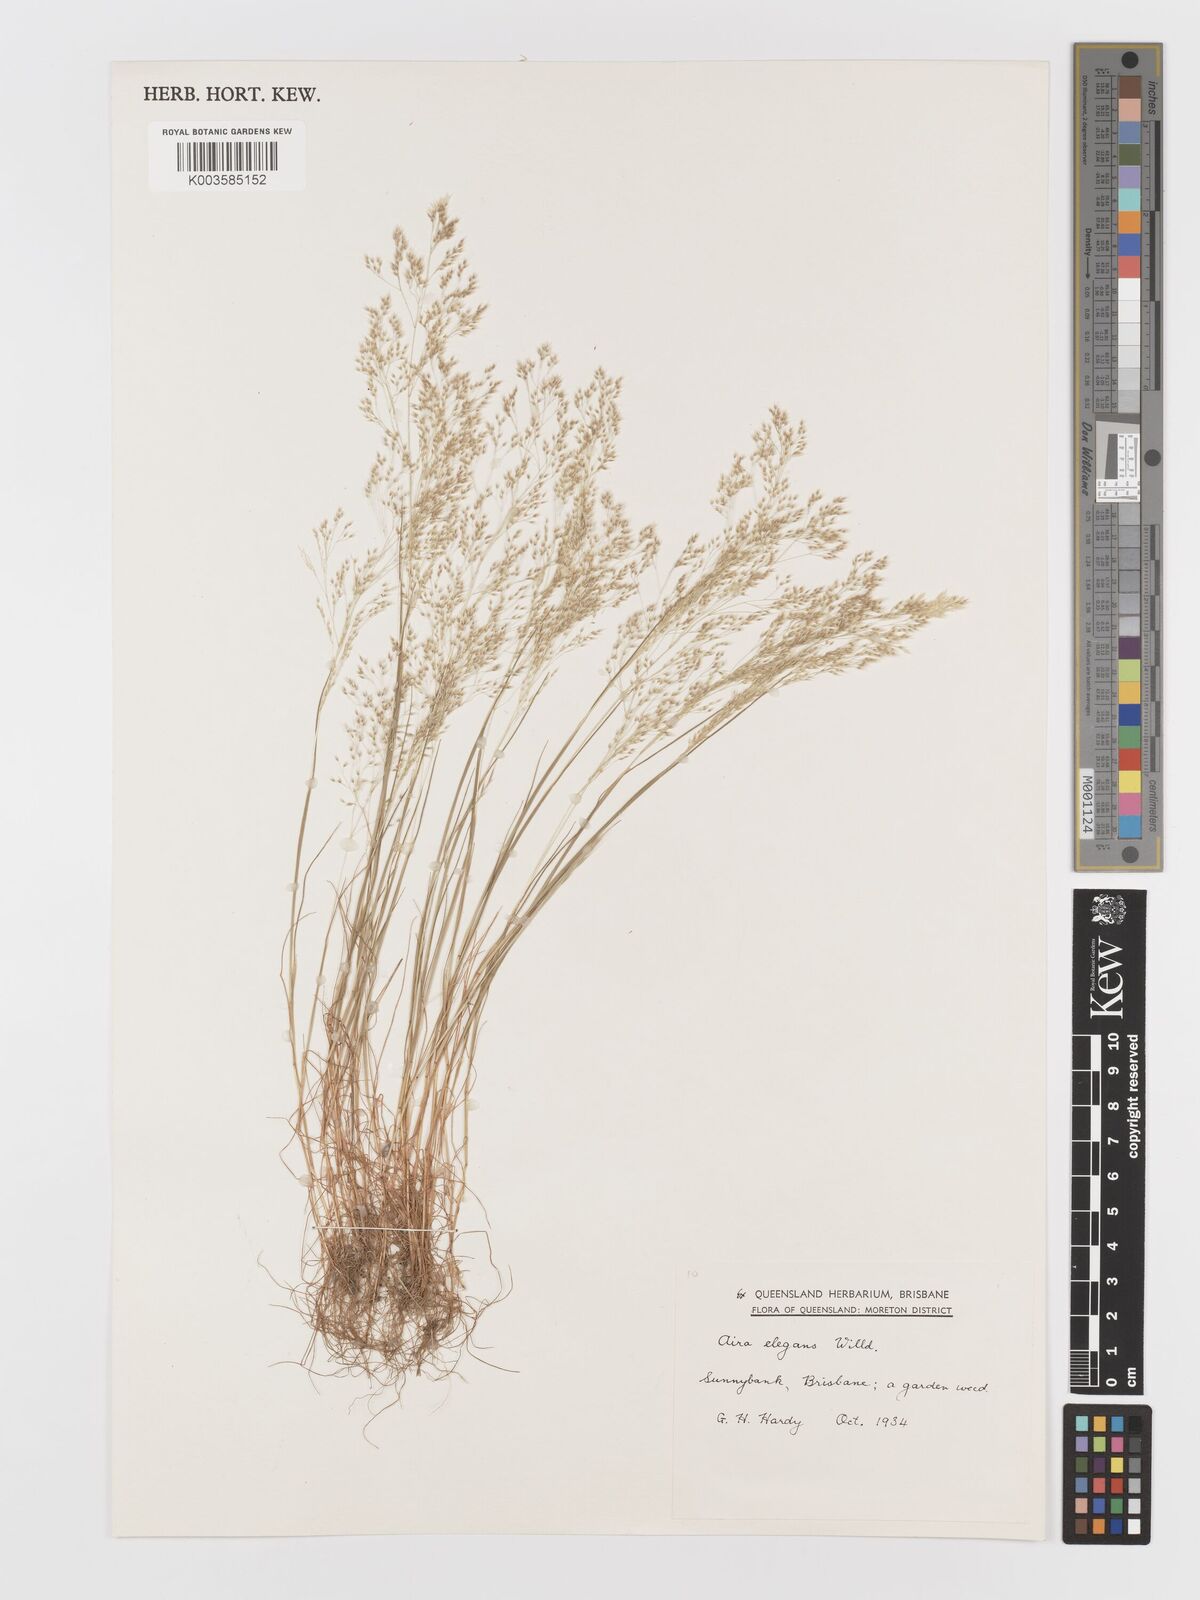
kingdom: Plantae
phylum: Tracheophyta
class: Liliopsida
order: Poales
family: Poaceae
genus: Aira
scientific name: Aira elegans
